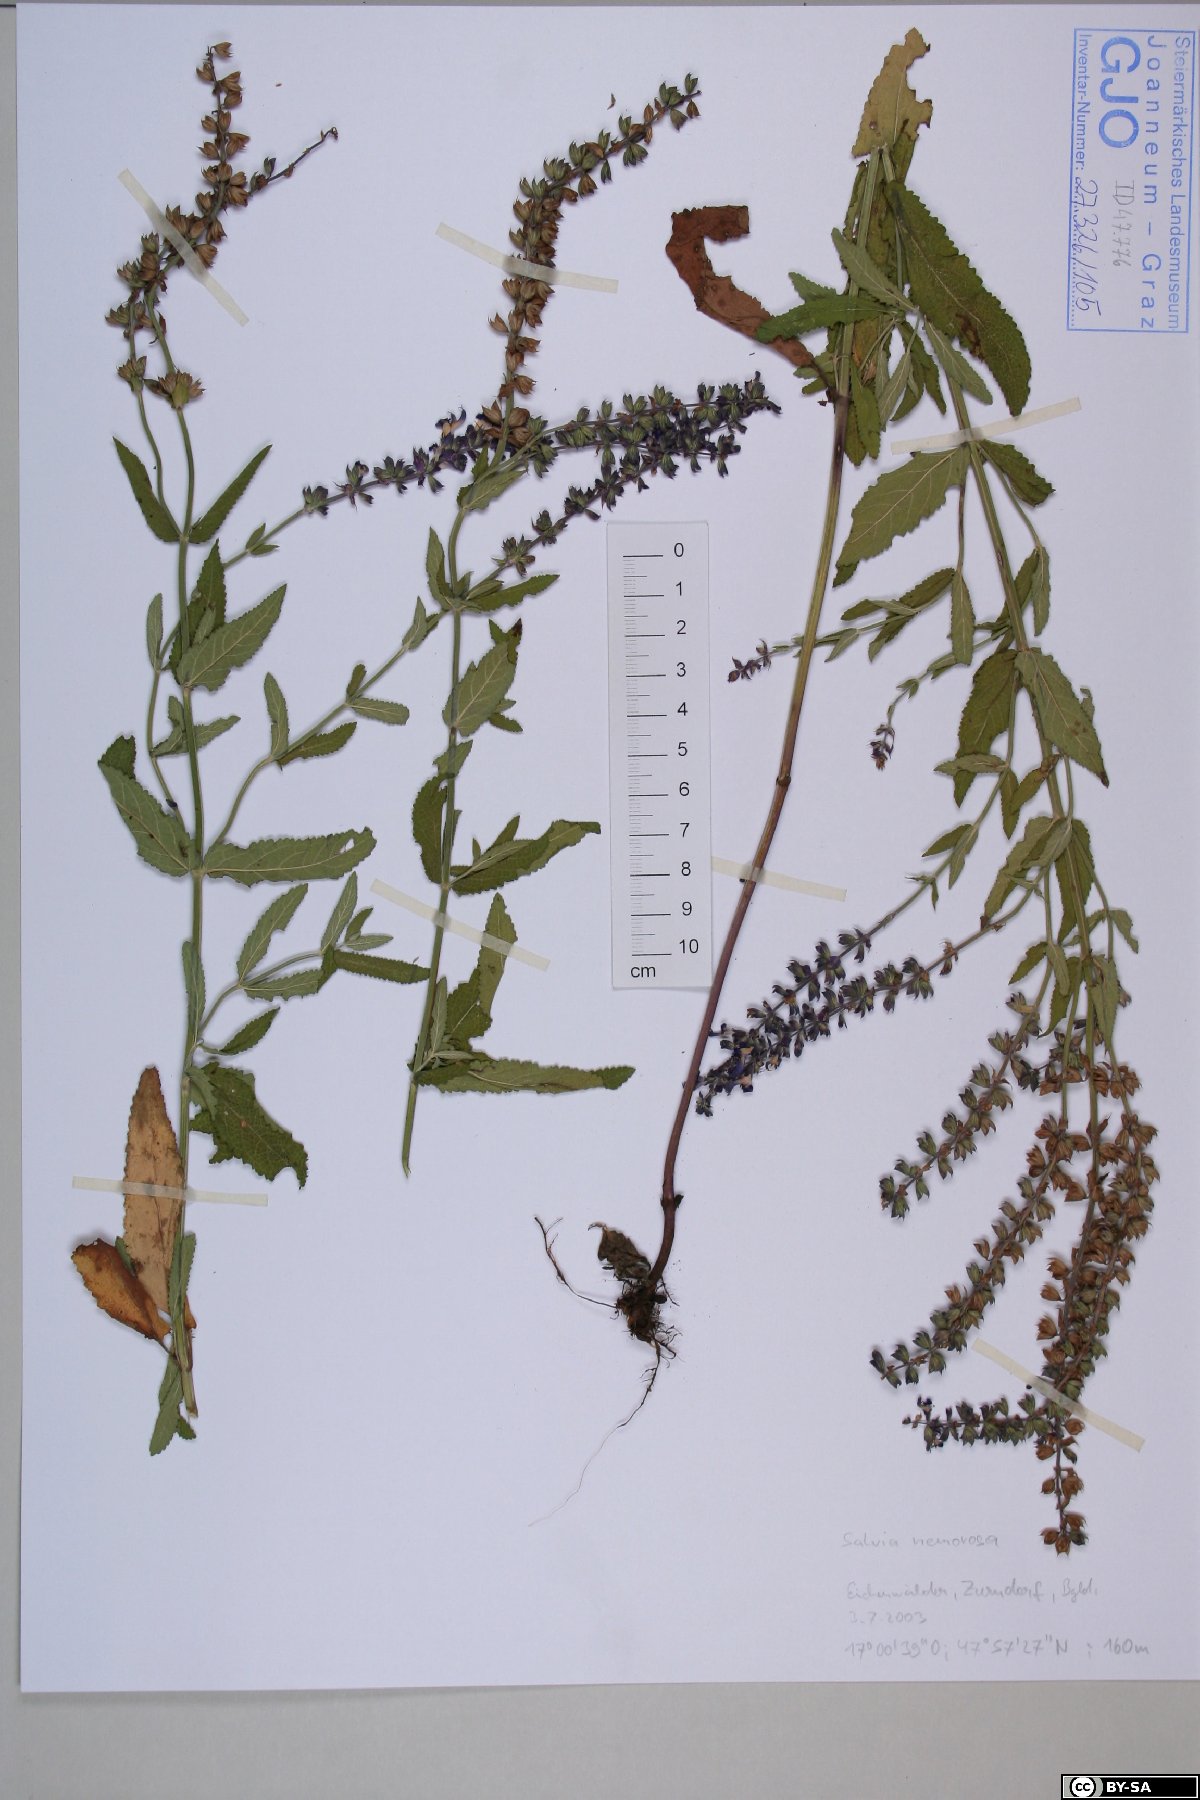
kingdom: Plantae
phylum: Tracheophyta
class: Magnoliopsida
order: Lamiales
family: Lamiaceae
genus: Salvia
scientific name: Salvia nemorosa
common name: Balkan clary
